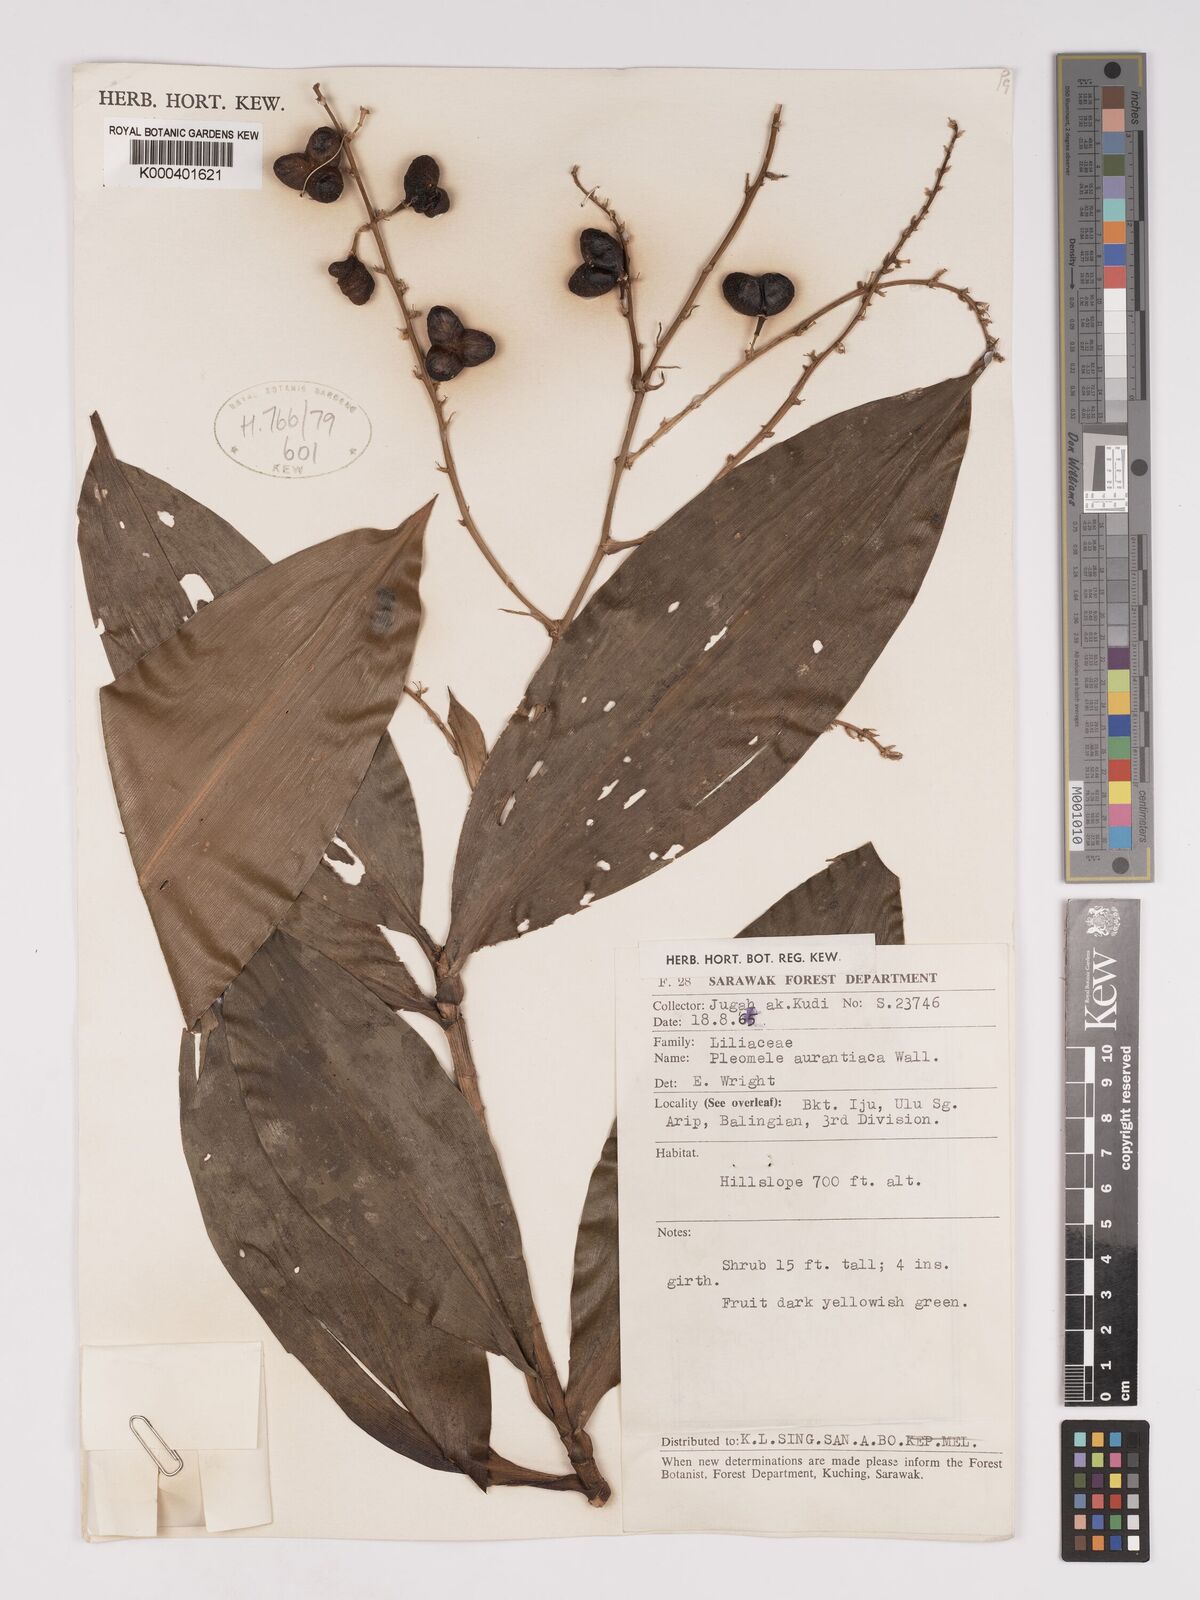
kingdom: Plantae
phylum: Tracheophyta
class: Liliopsida
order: Asparagales
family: Asparagaceae
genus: Dracaena
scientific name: Dracaena
